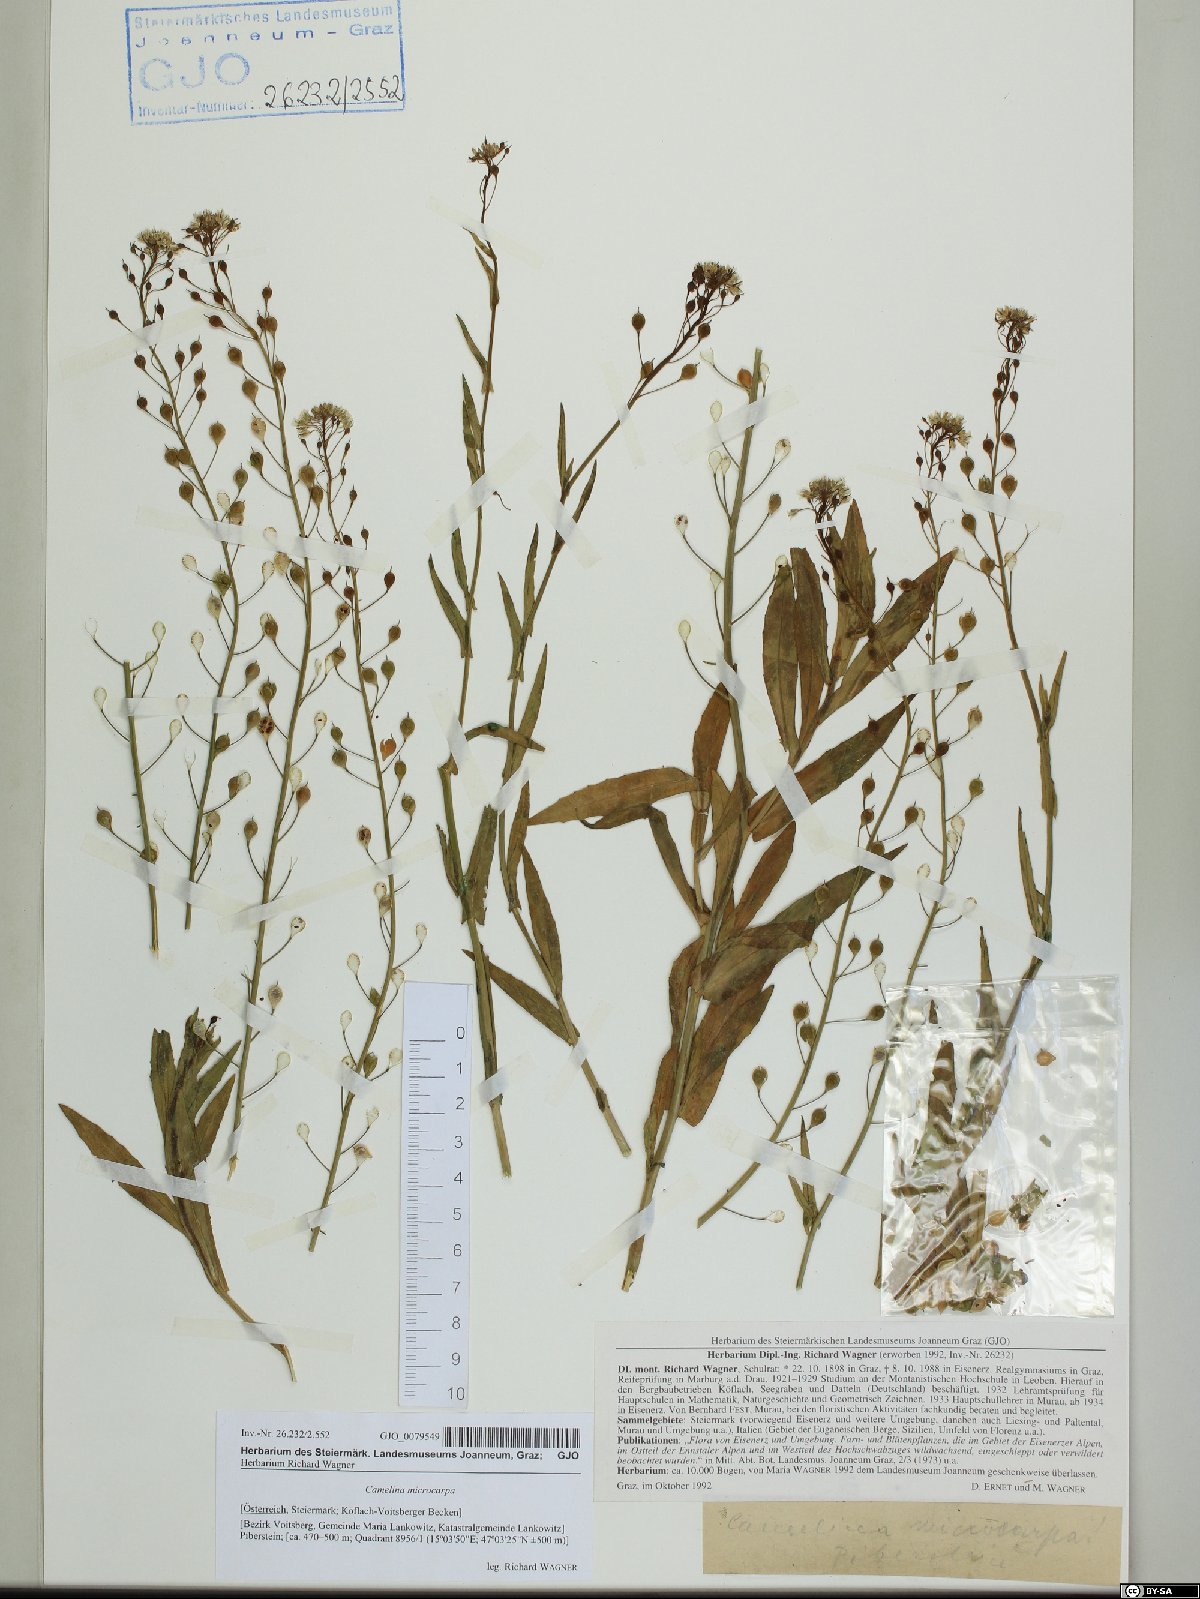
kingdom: Plantae
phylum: Tracheophyta
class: Magnoliopsida
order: Brassicales
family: Brassicaceae
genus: Camelina
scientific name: Camelina microcarpa
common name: Lesser gold-of-pleasure
